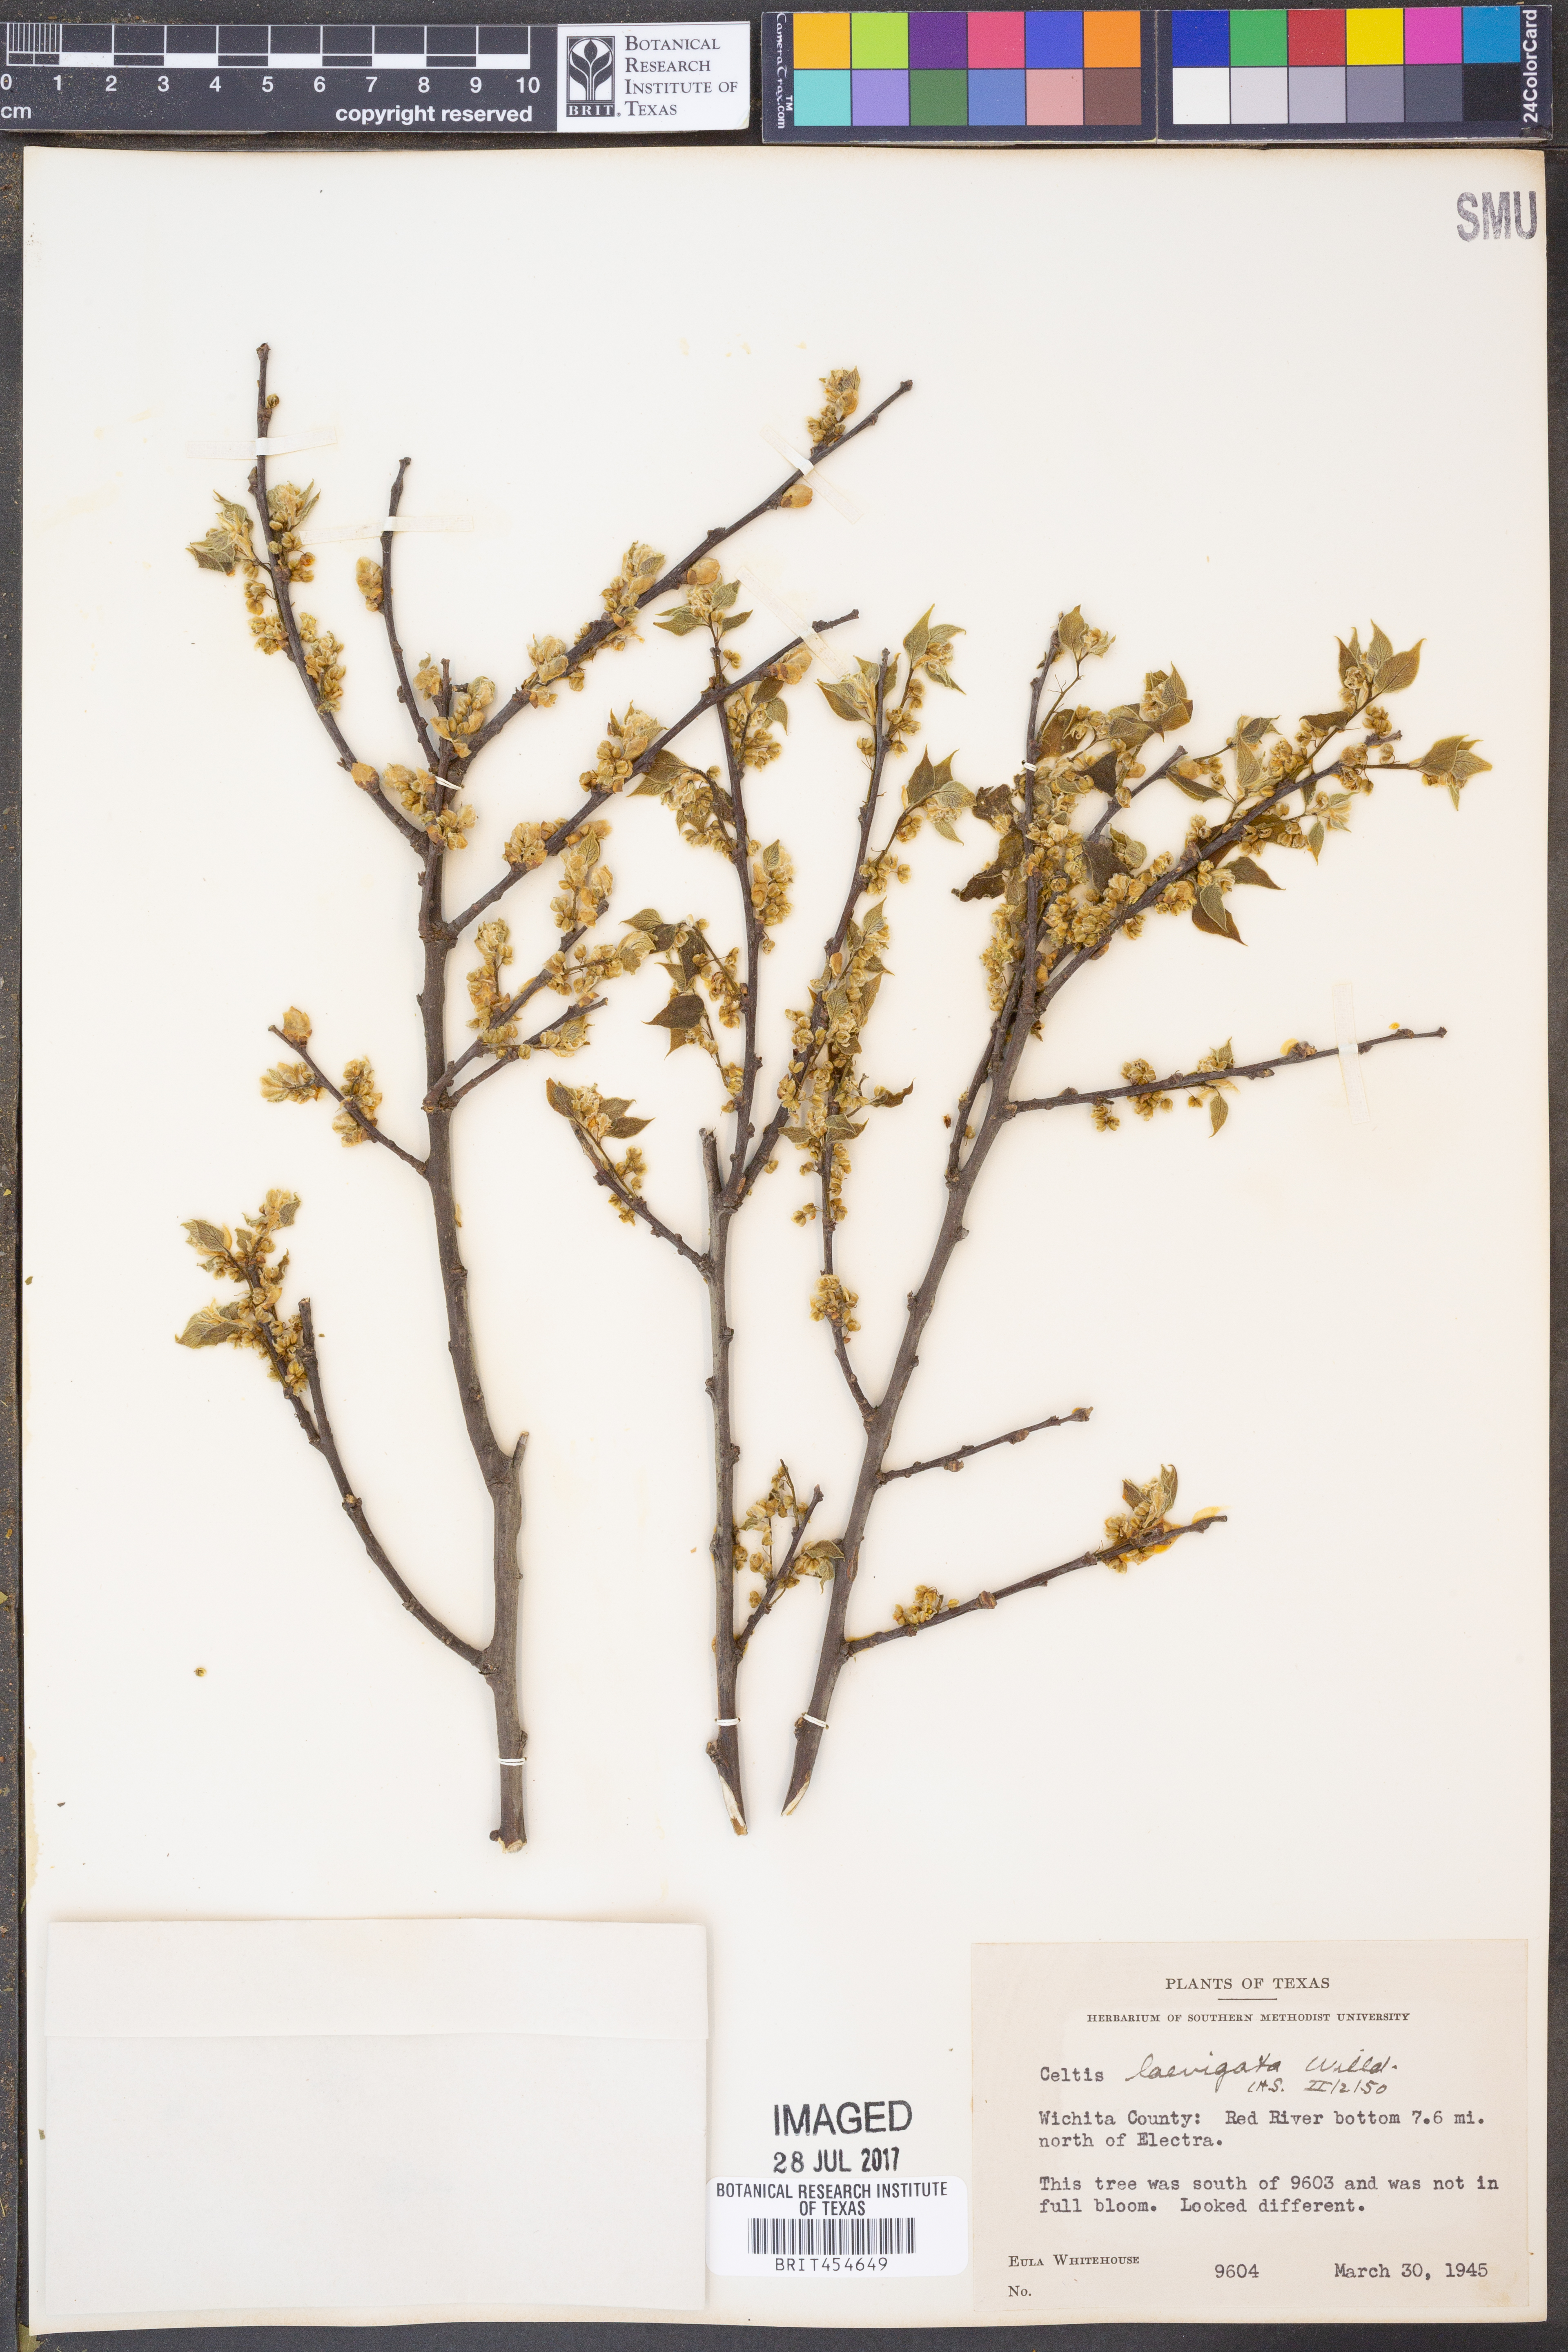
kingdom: Plantae
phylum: Tracheophyta
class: Magnoliopsida
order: Rosales
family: Cannabaceae
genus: Celtis
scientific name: Celtis laevigata
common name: Sugarberry
